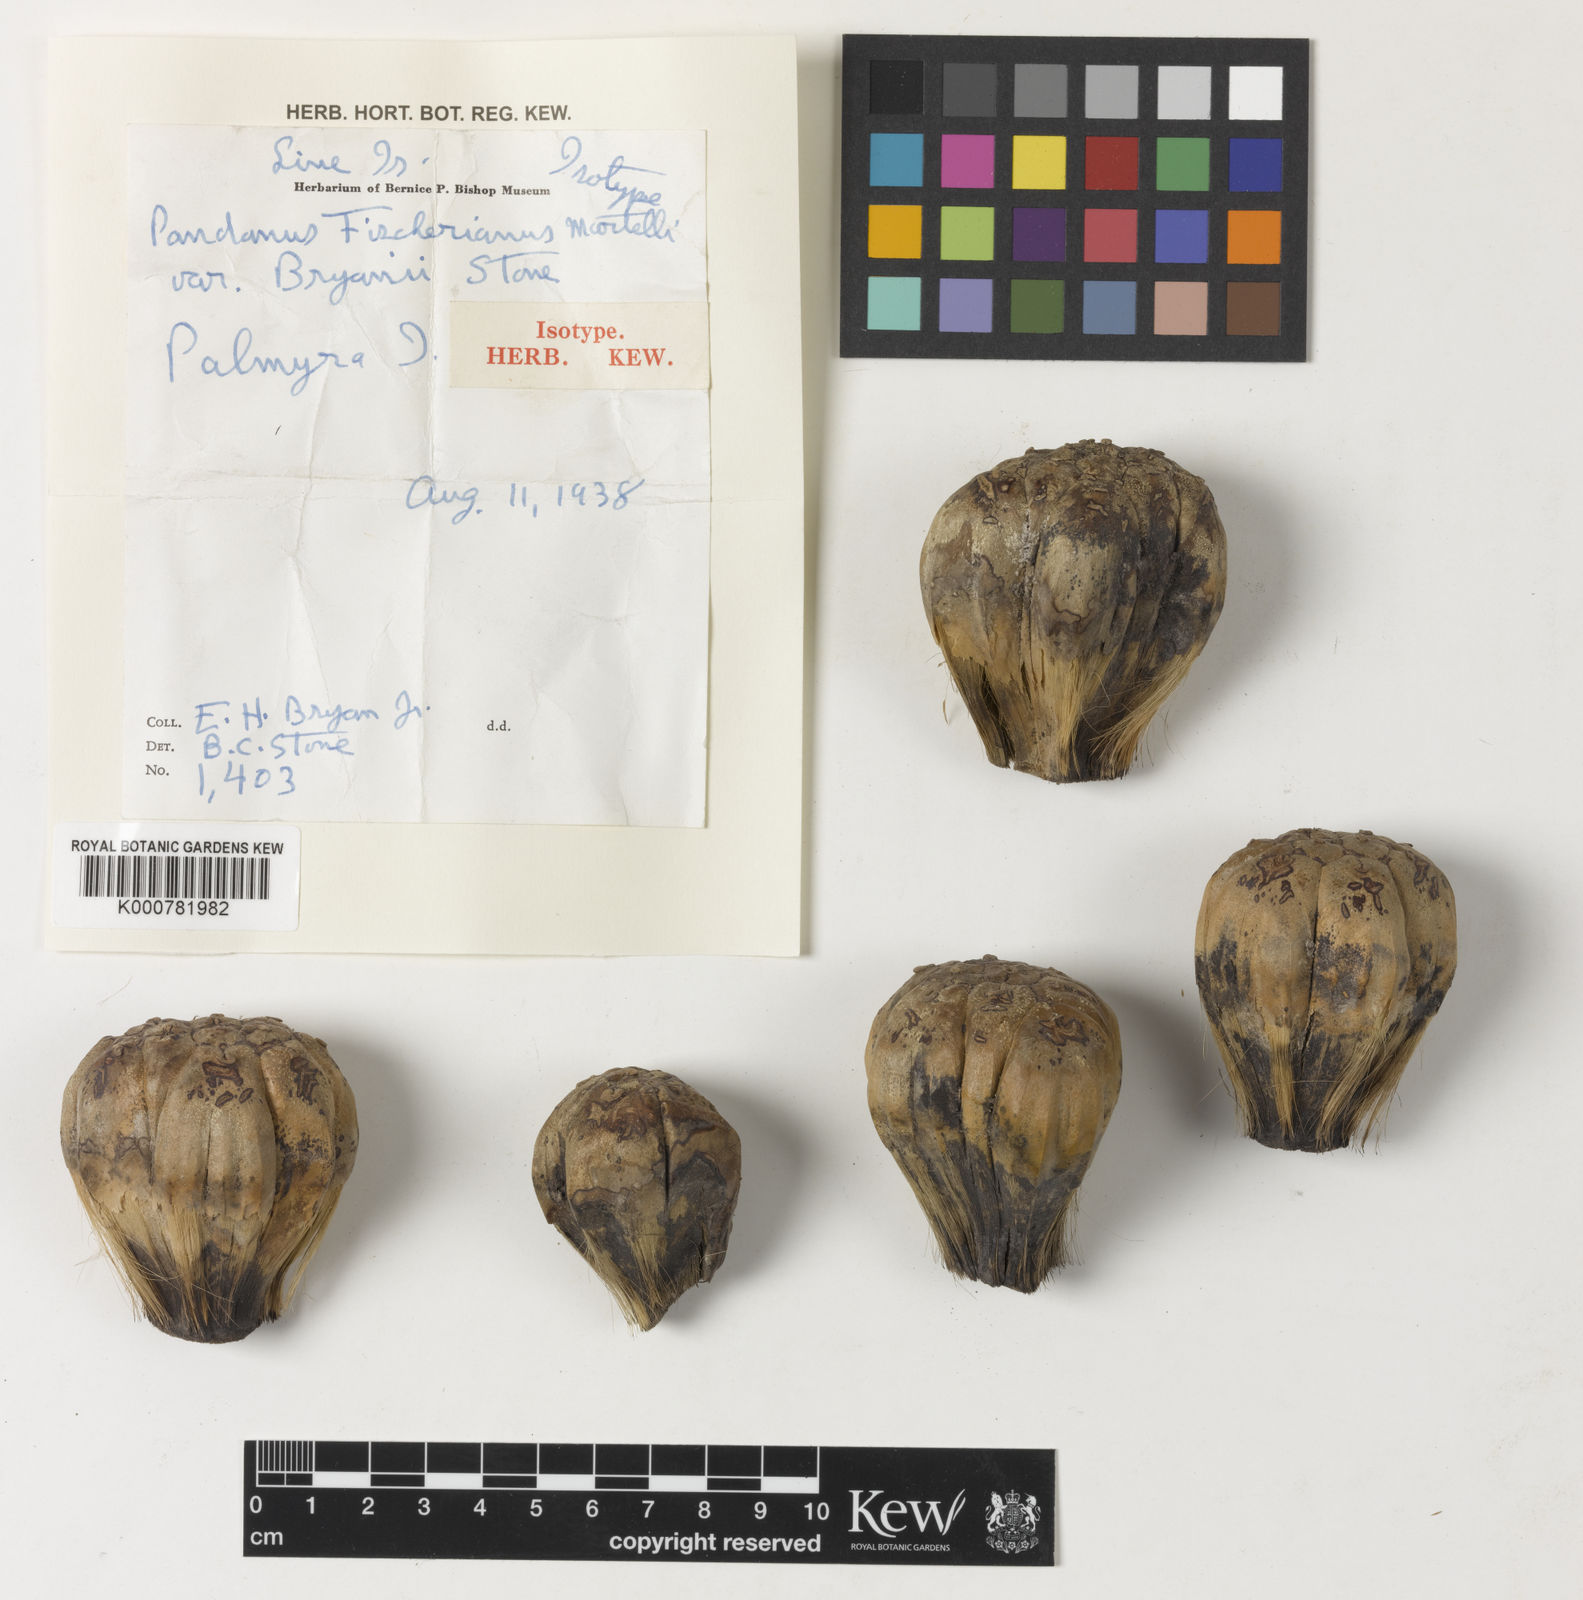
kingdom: Plantae
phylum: Tracheophyta
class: Liliopsida
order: Pandanales
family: Pandanaceae
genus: Pandanus
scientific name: Pandanus tectorius
